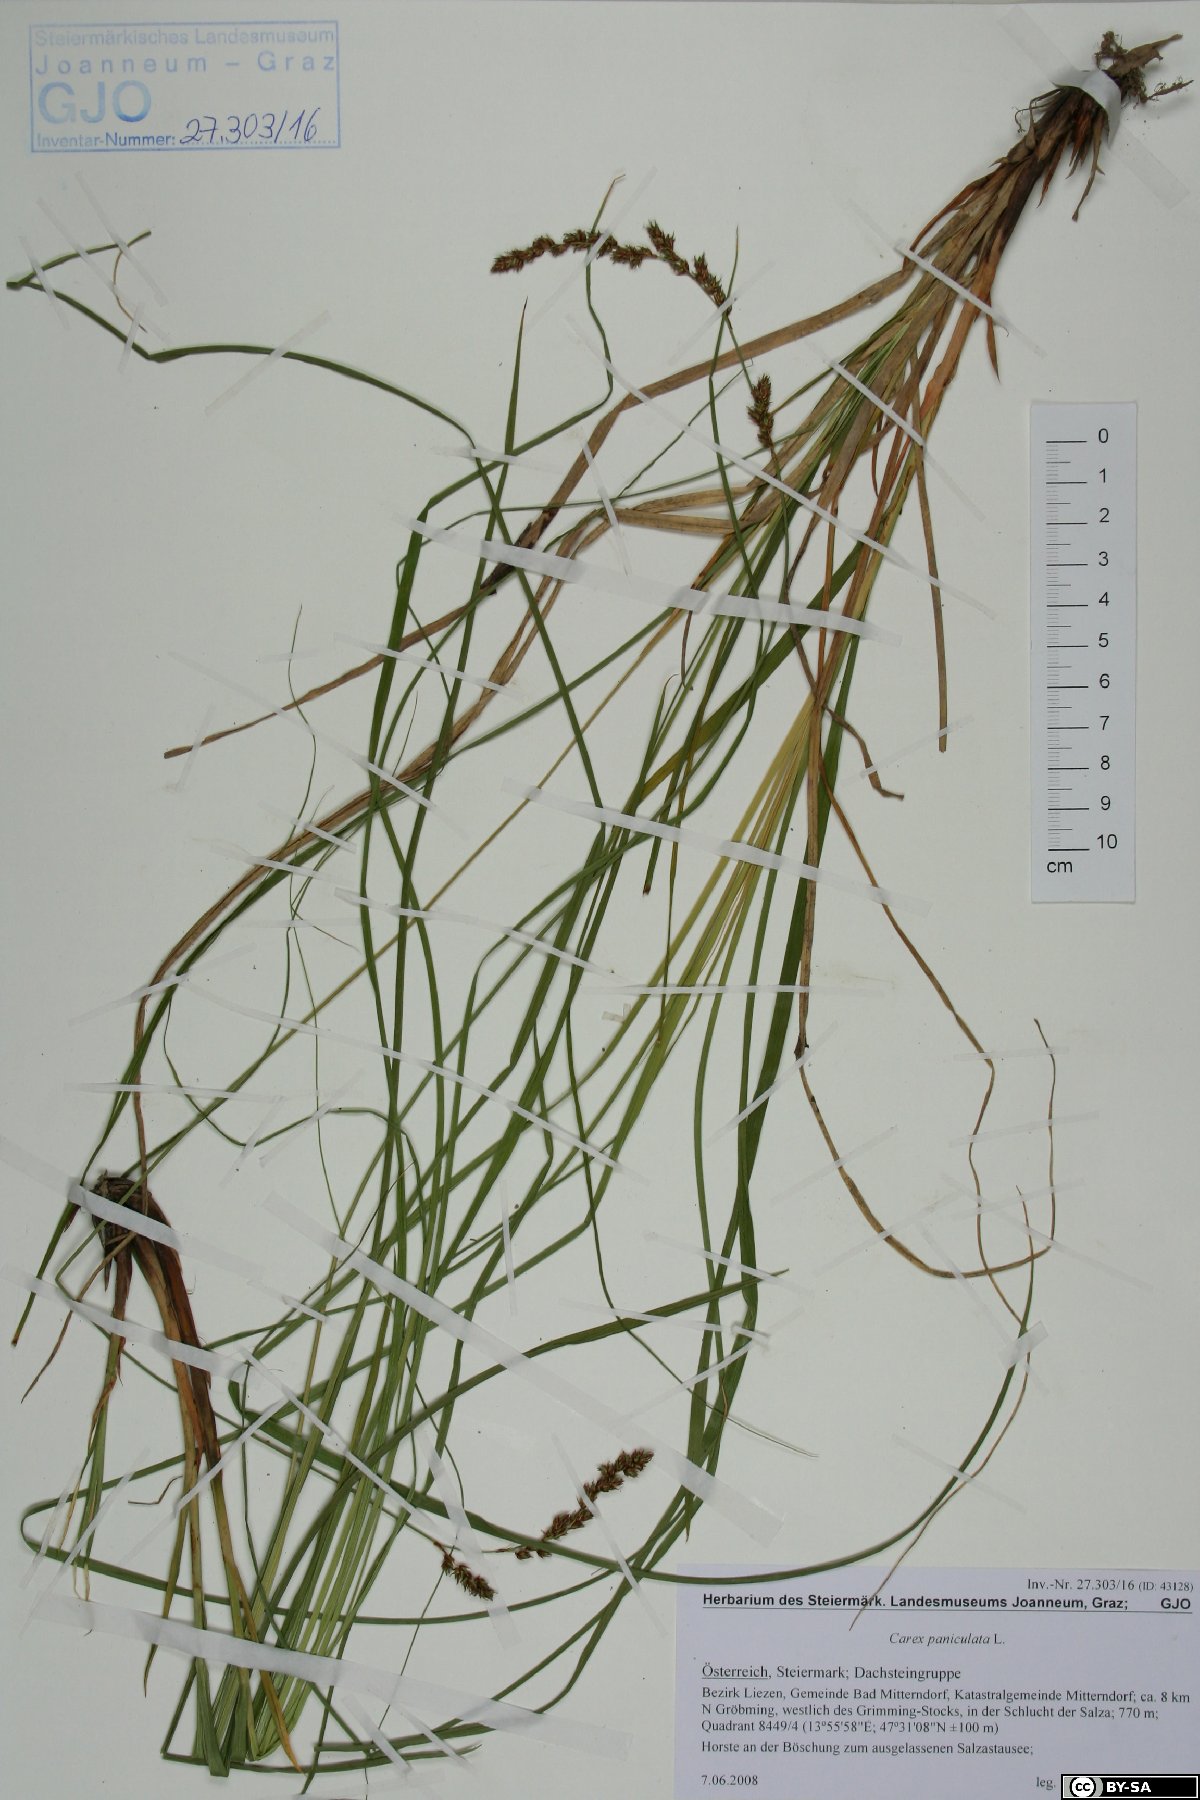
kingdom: Plantae
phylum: Tracheophyta
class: Liliopsida
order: Poales
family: Cyperaceae
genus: Carex
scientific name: Carex paniculata
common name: Greater tussock-sedge
